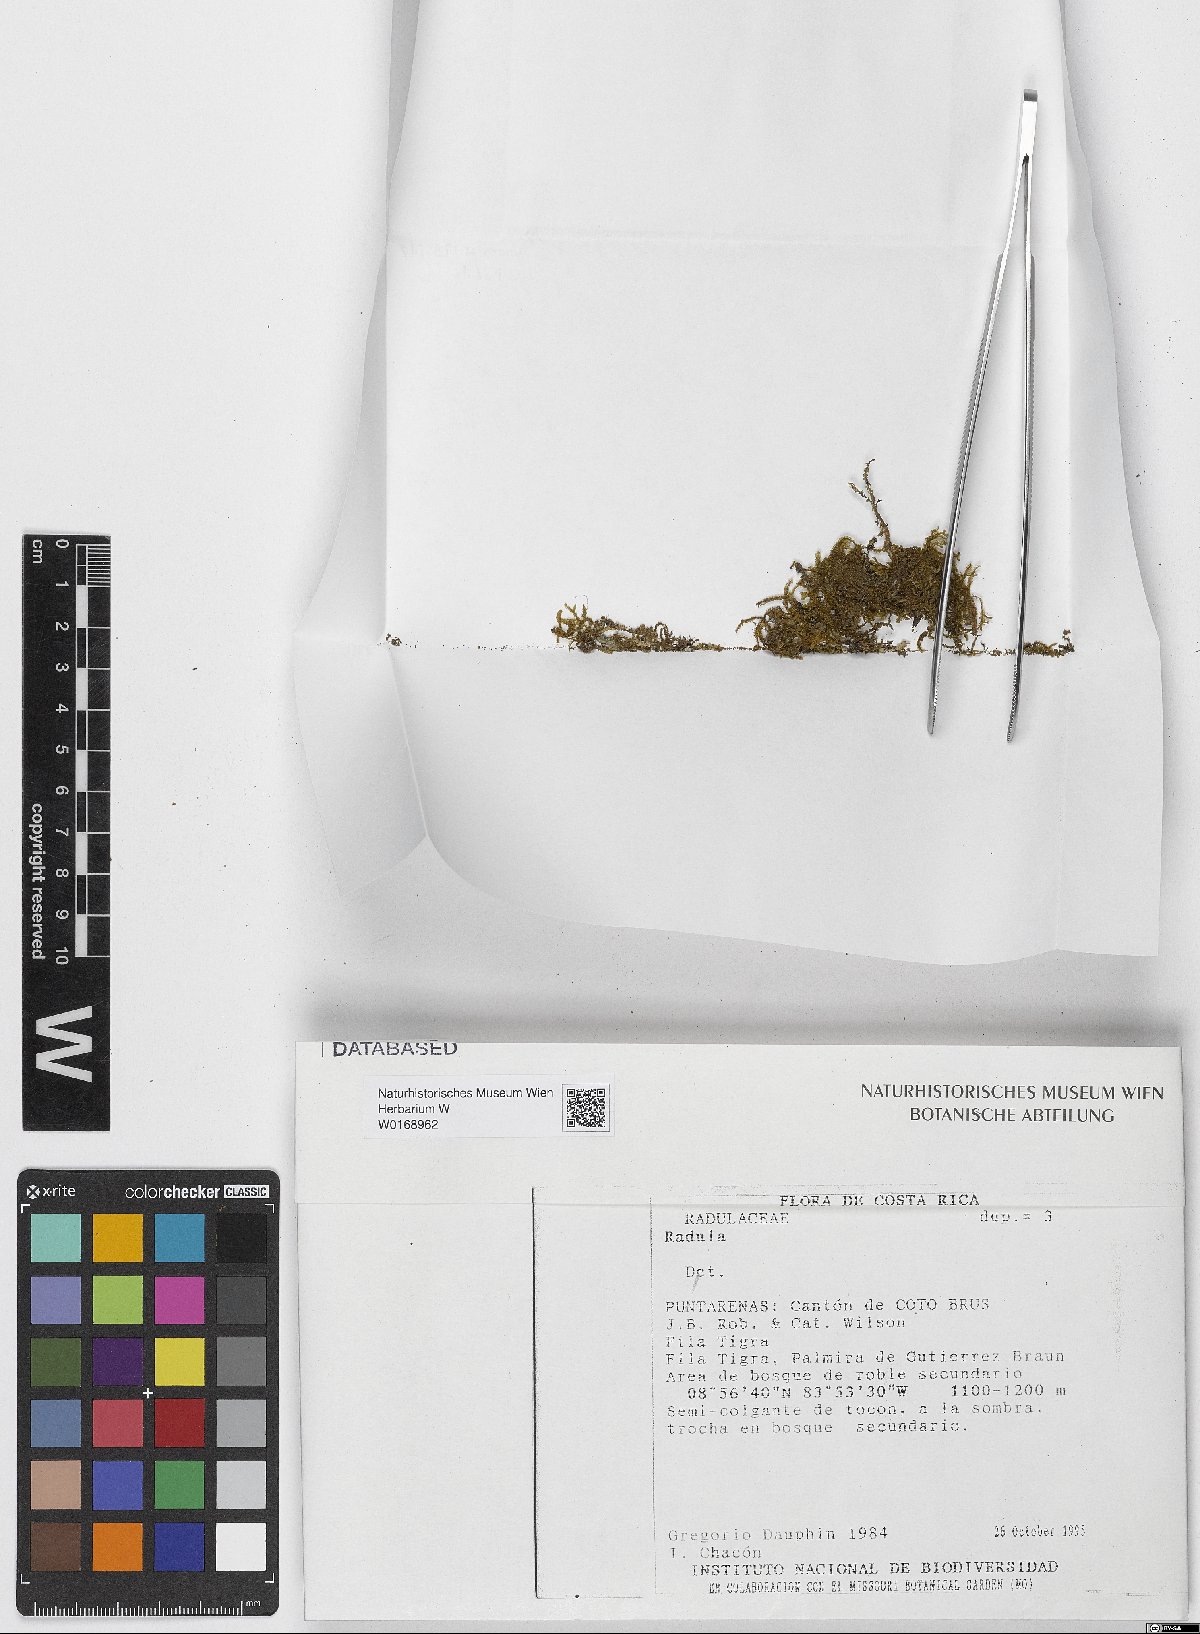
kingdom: Plantae
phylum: Marchantiophyta
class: Jungermanniopsida
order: Porellales
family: Radulaceae
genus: Radula
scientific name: Radula
